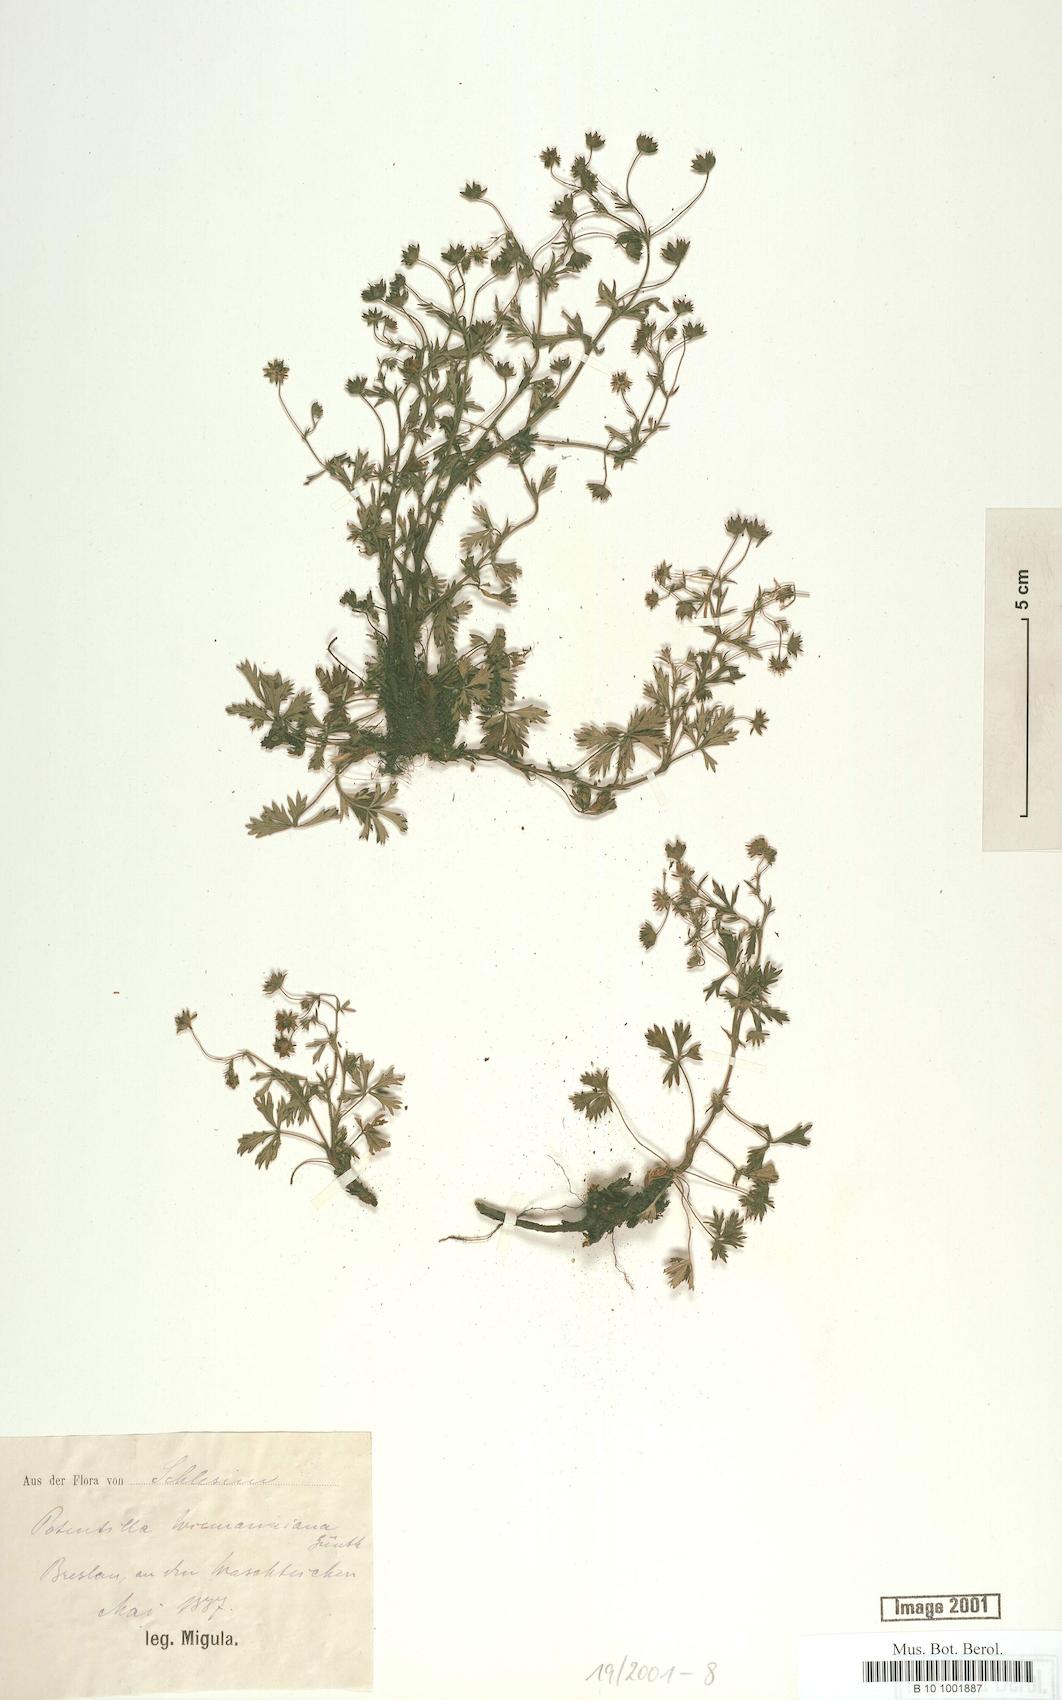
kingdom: Plantae
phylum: Tracheophyta
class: Magnoliopsida
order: Rosales
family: Rosaceae
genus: Potentilla
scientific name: Potentilla
